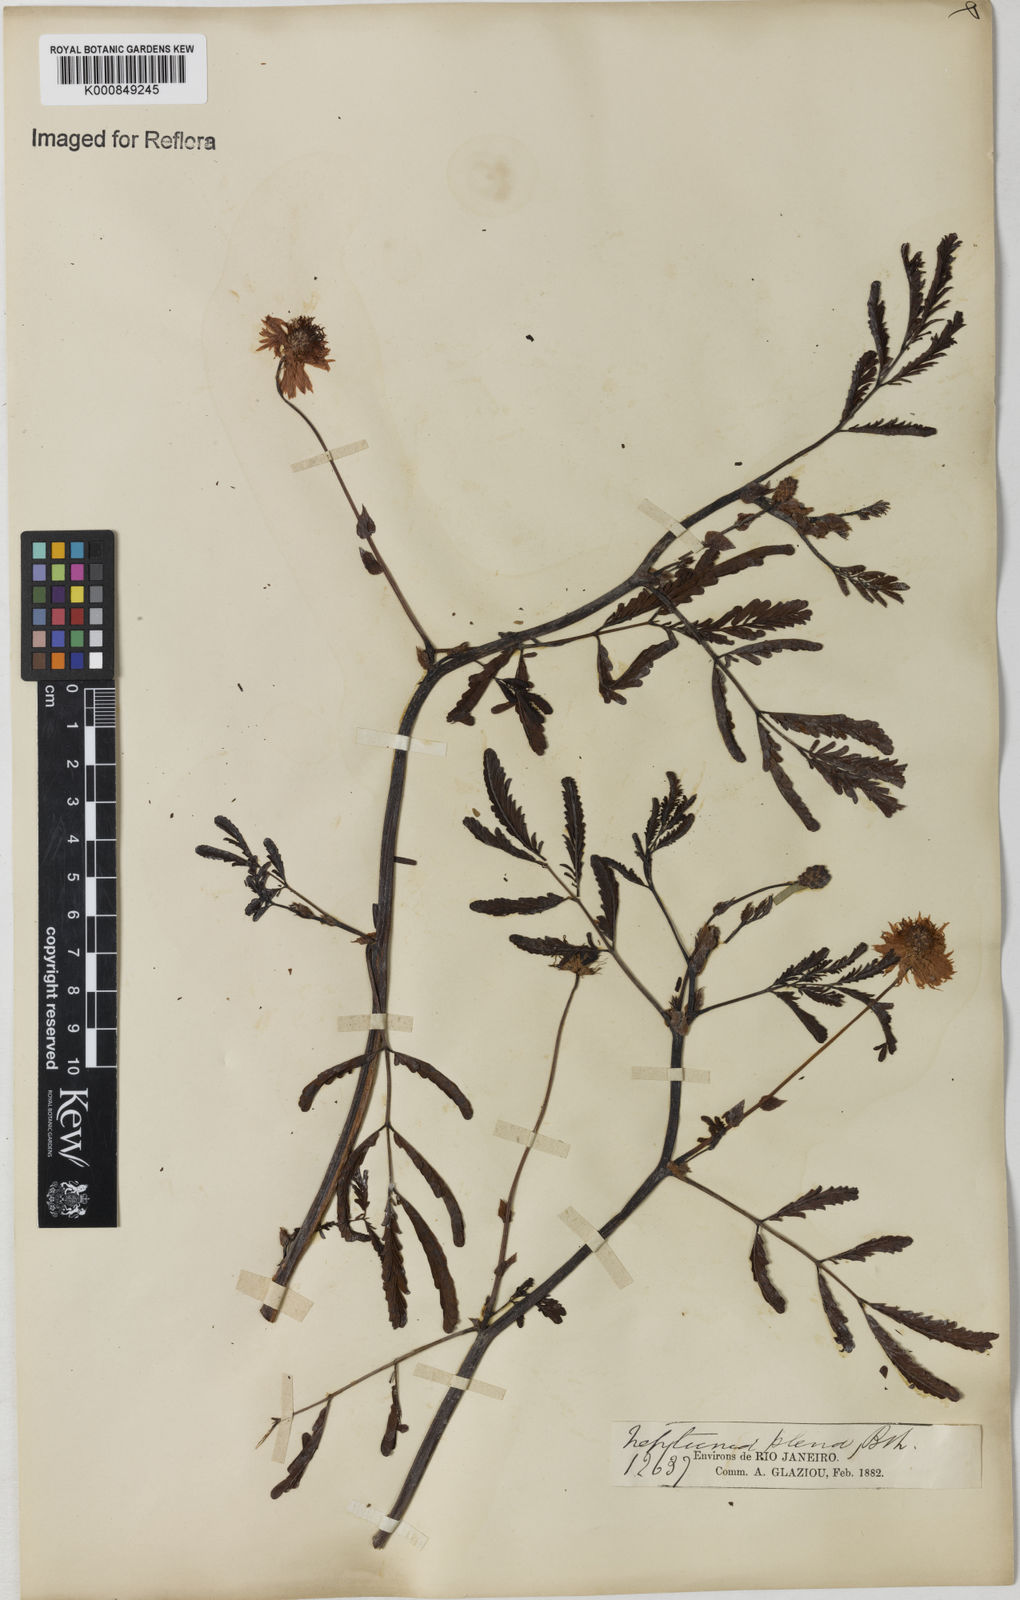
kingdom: Plantae
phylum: Tracheophyta
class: Magnoliopsida
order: Fabales
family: Fabaceae
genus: Neptunia
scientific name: Neptunia plena
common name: Dead and awake
